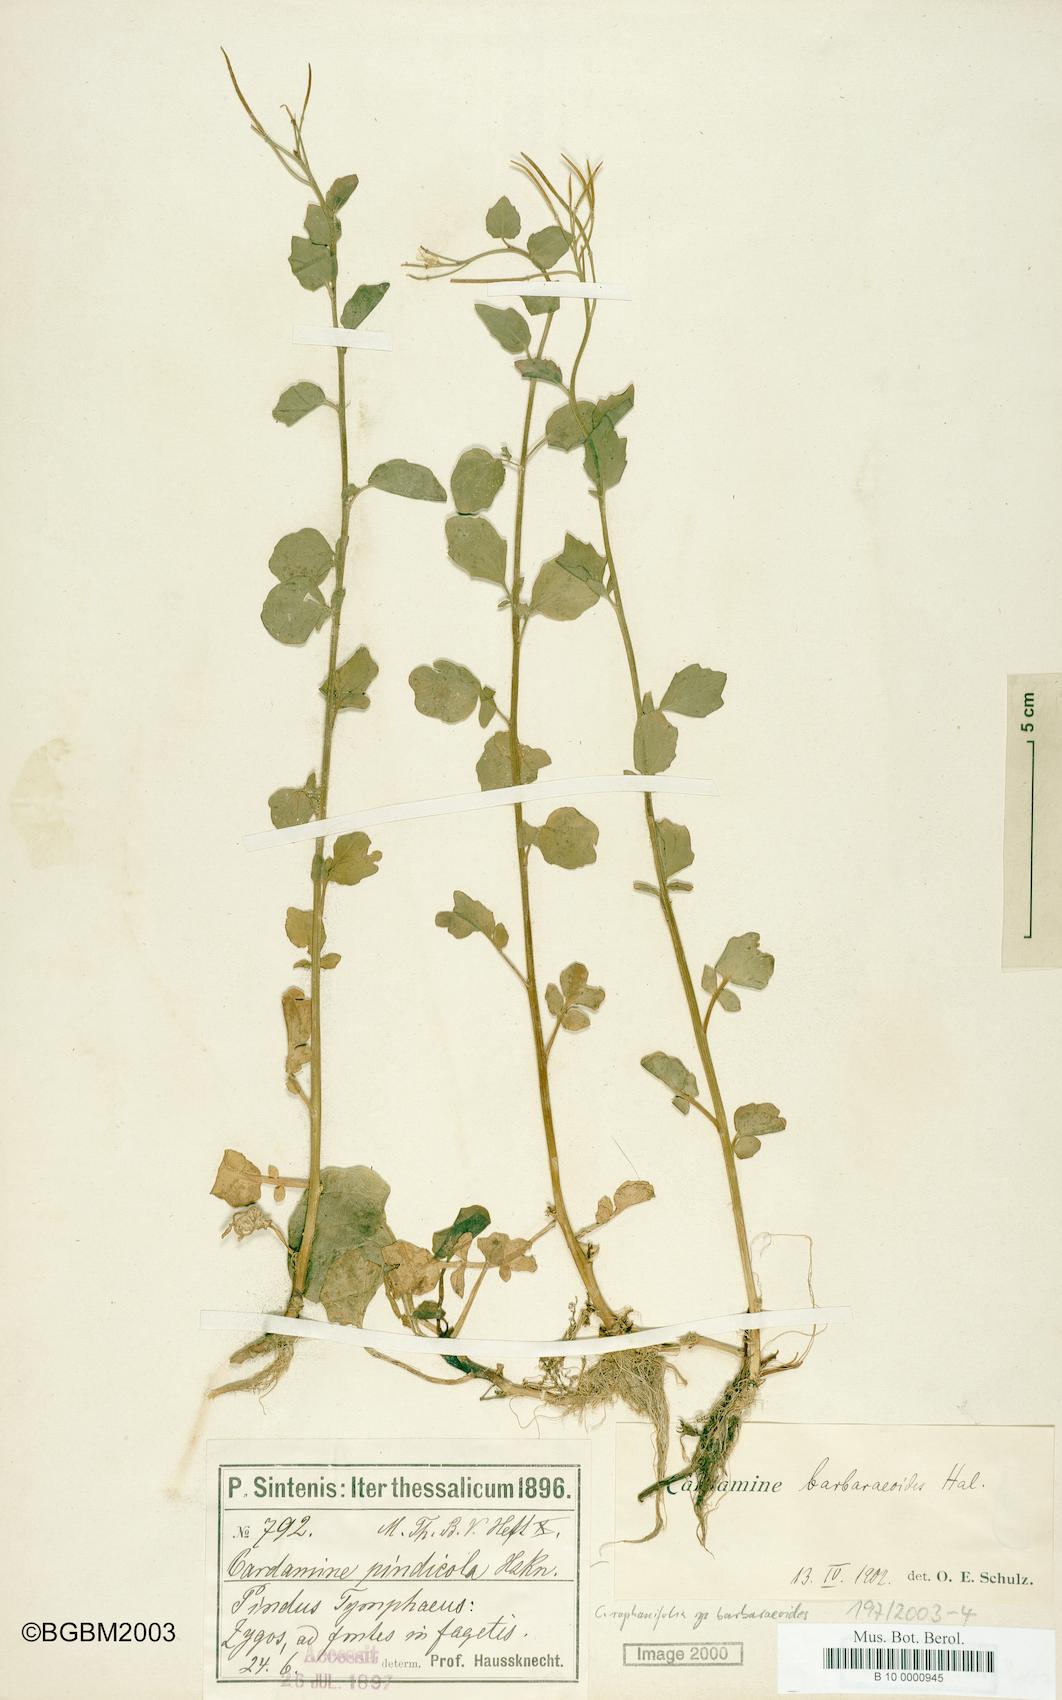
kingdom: Plantae
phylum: Tracheophyta
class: Magnoliopsida
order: Brassicales
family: Brassicaceae
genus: Cardamine
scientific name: Cardamine raphanifolia
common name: Greater cuckooflower
